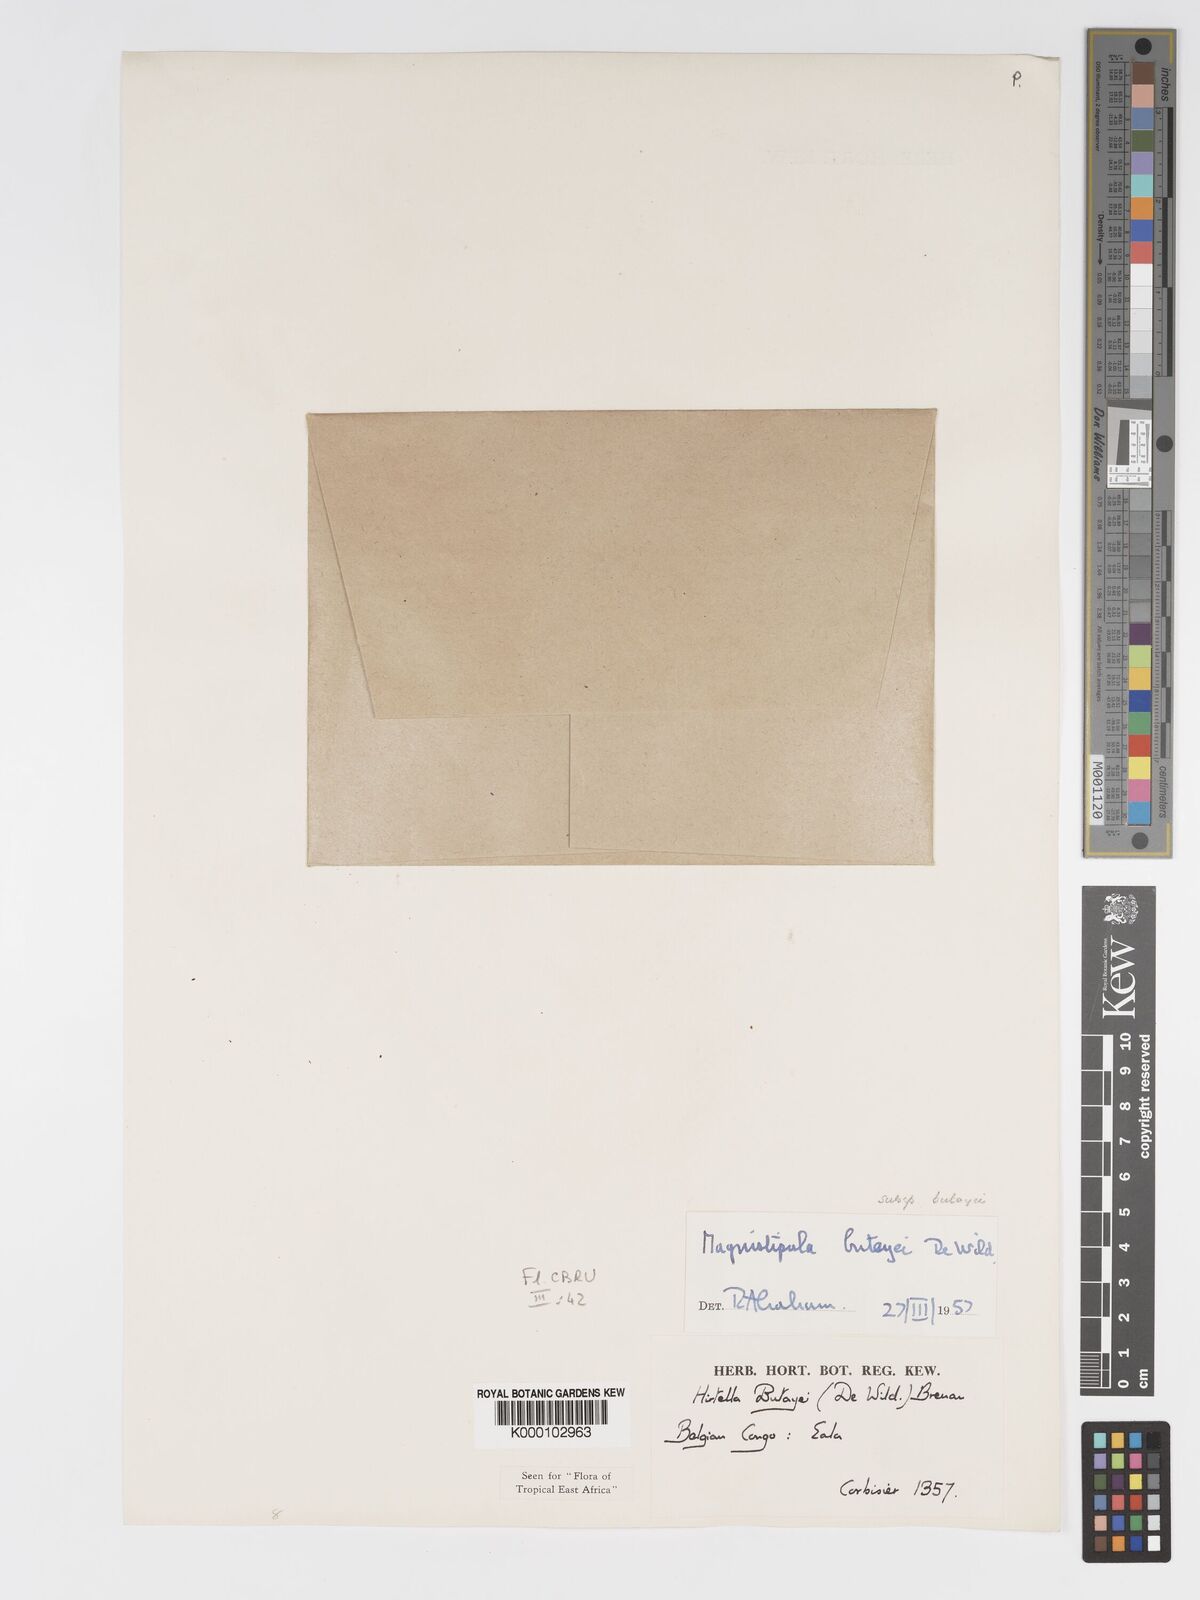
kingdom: Plantae
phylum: Tracheophyta
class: Magnoliopsida
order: Malpighiales
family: Chrysobalanaceae
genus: Magnistipula
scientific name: Magnistipula butayei
